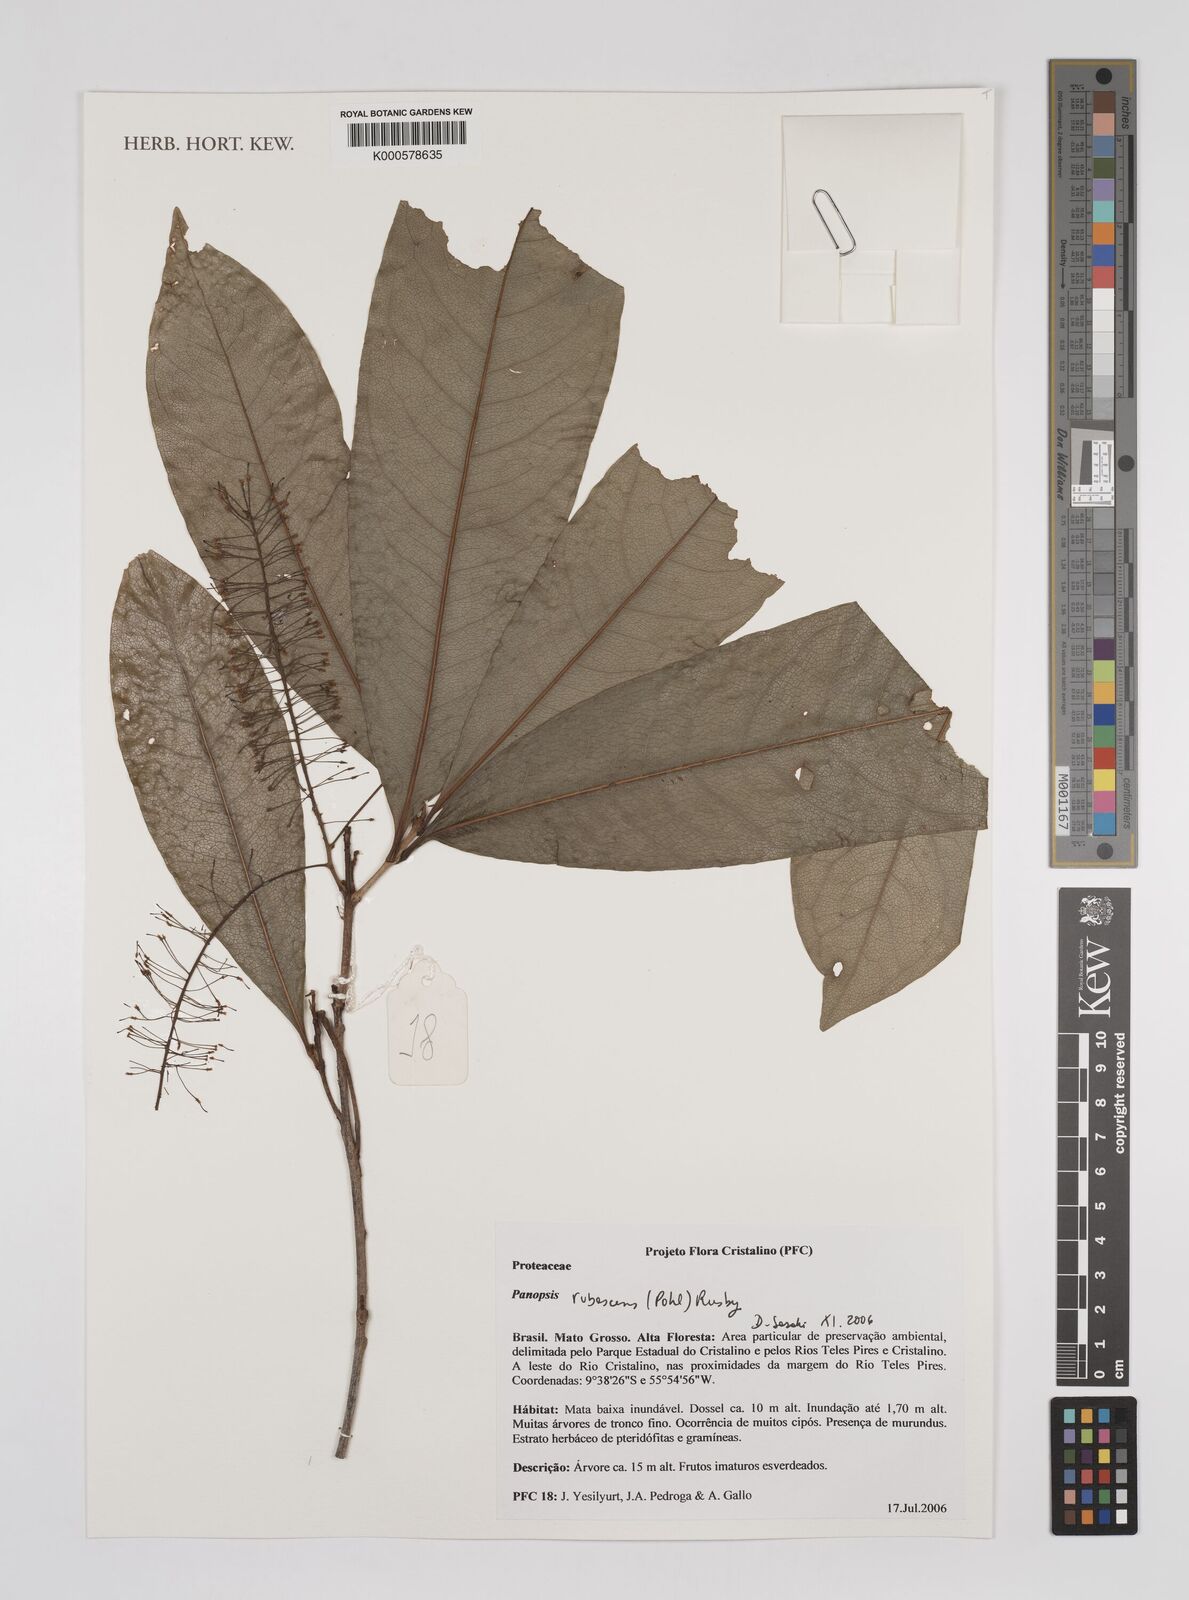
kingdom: Plantae
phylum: Tracheophyta
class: Magnoliopsida
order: Proteales
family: Proteaceae
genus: Panopsis
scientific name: Panopsis
